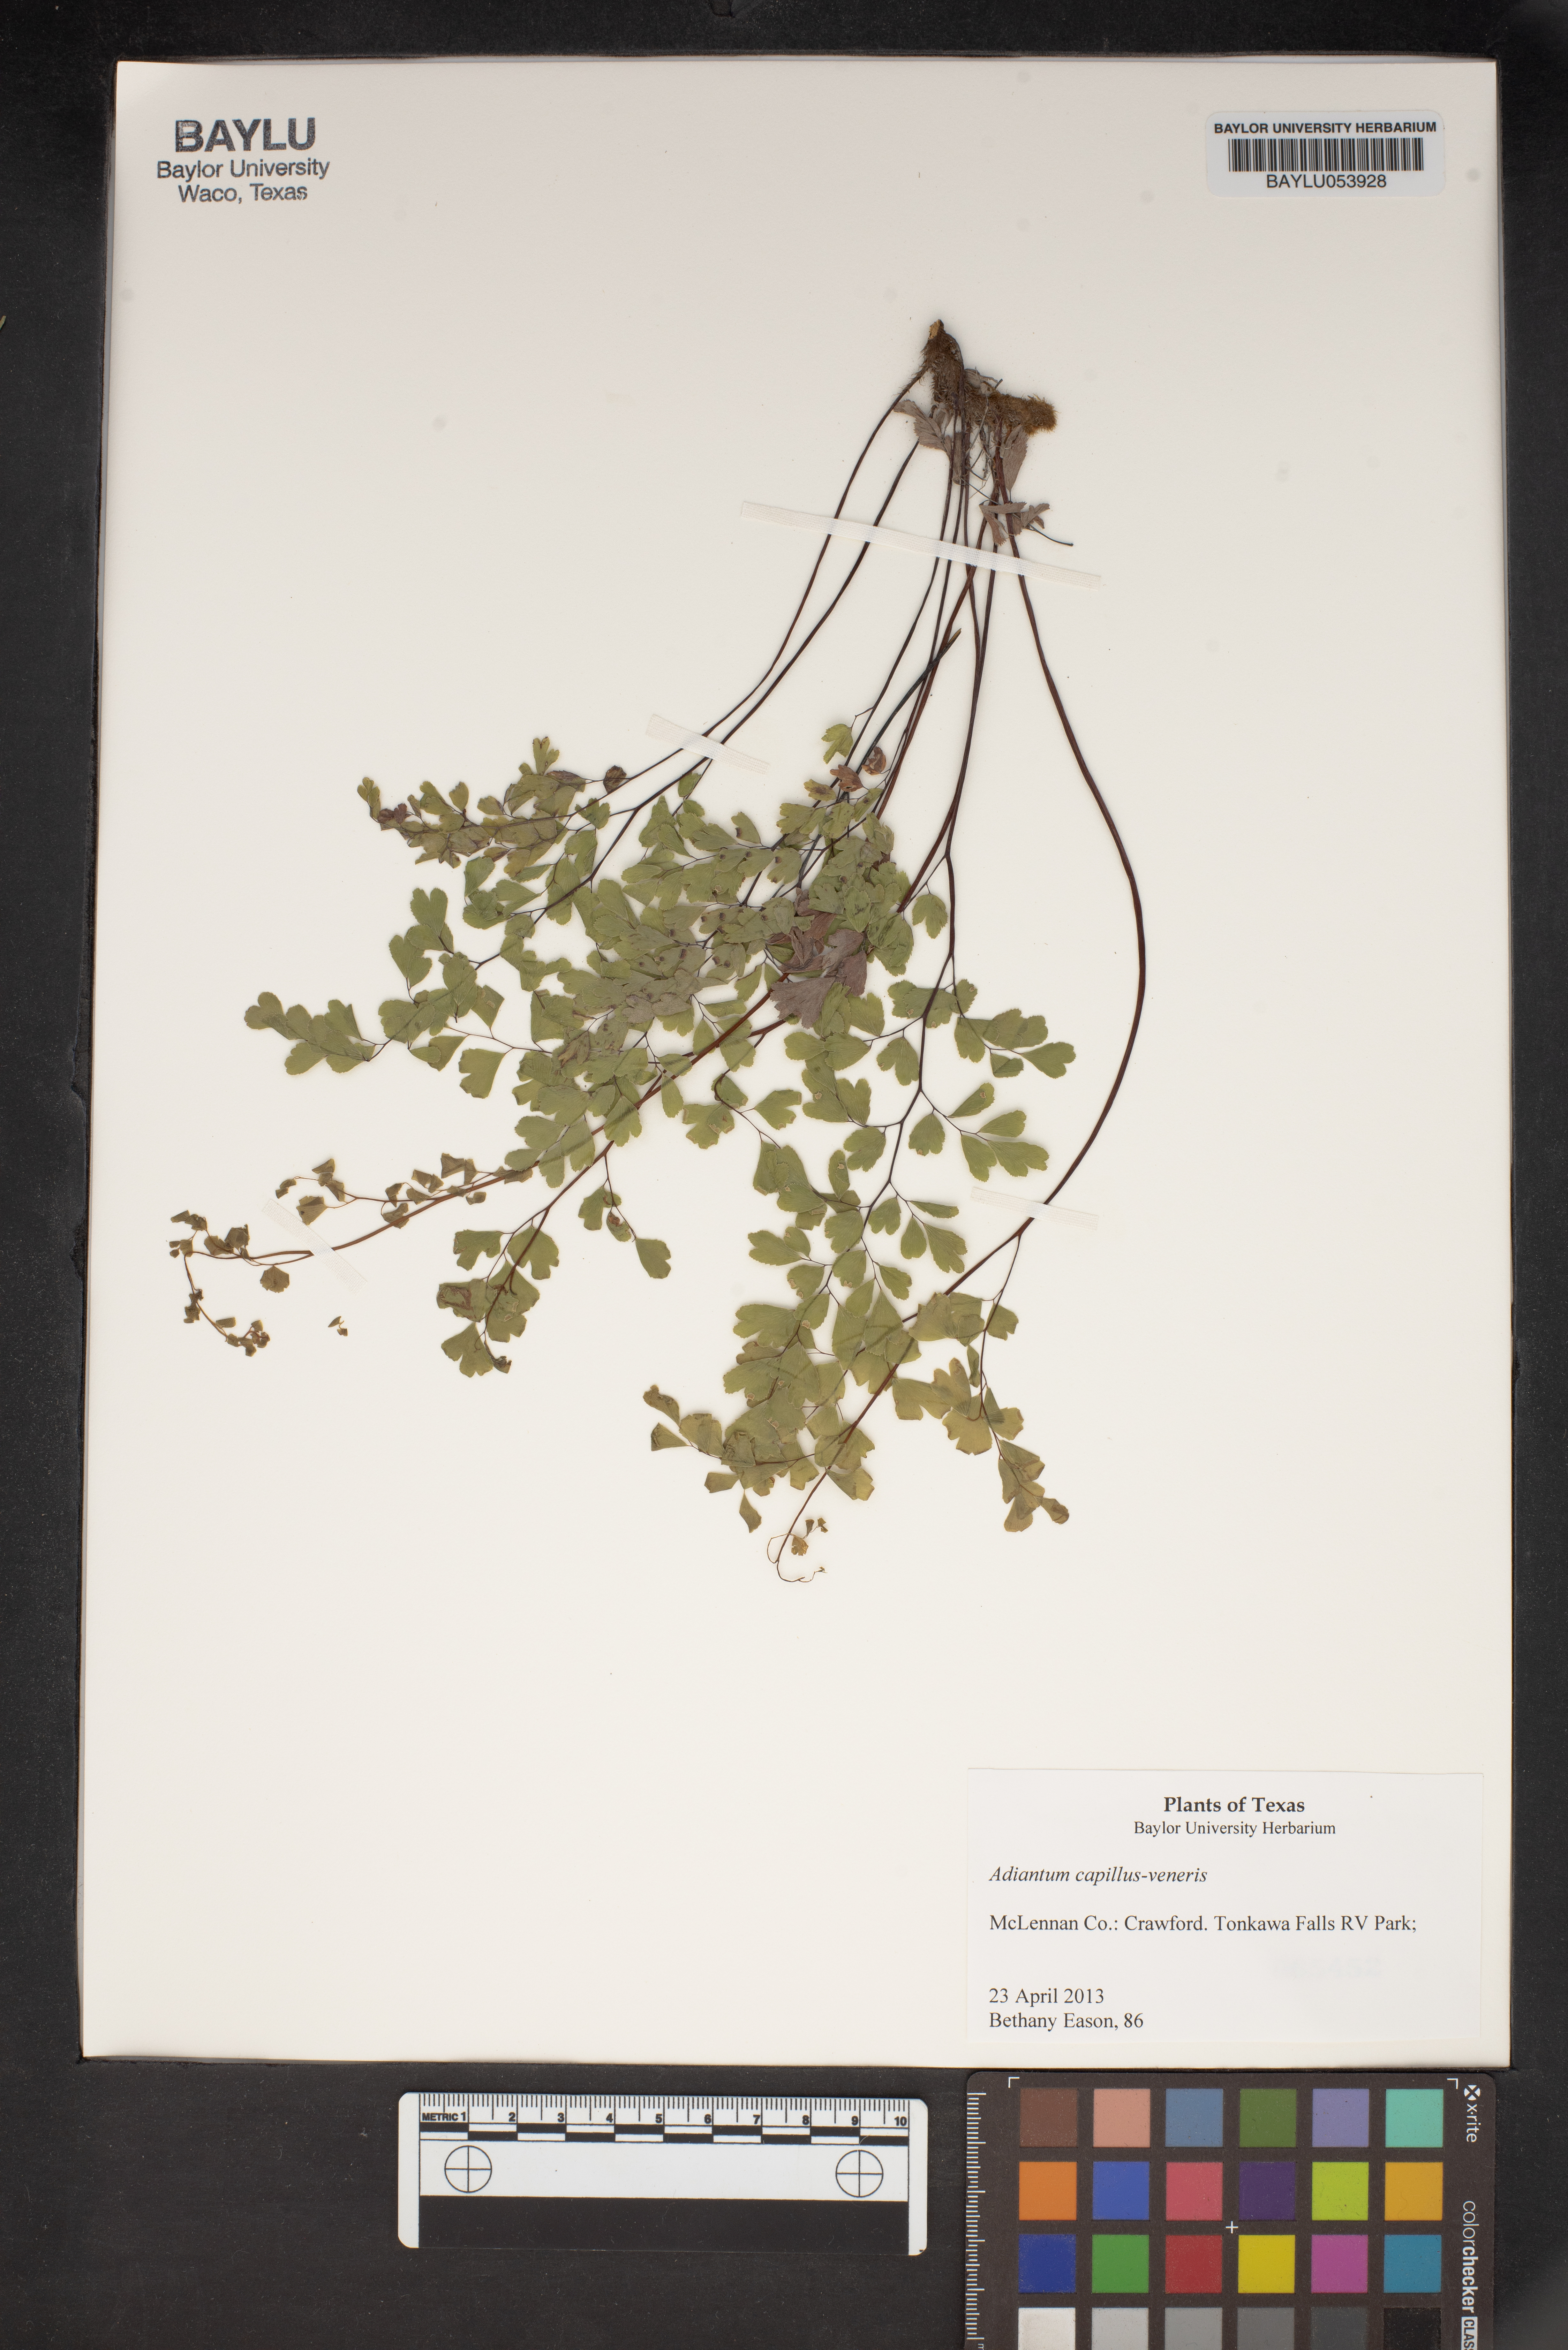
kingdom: Plantae
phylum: Tracheophyta
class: Polypodiopsida
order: Polypodiales
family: Pteridaceae
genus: Adiantum
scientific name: Adiantum capillus-veneris
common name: Maidenhair fern
